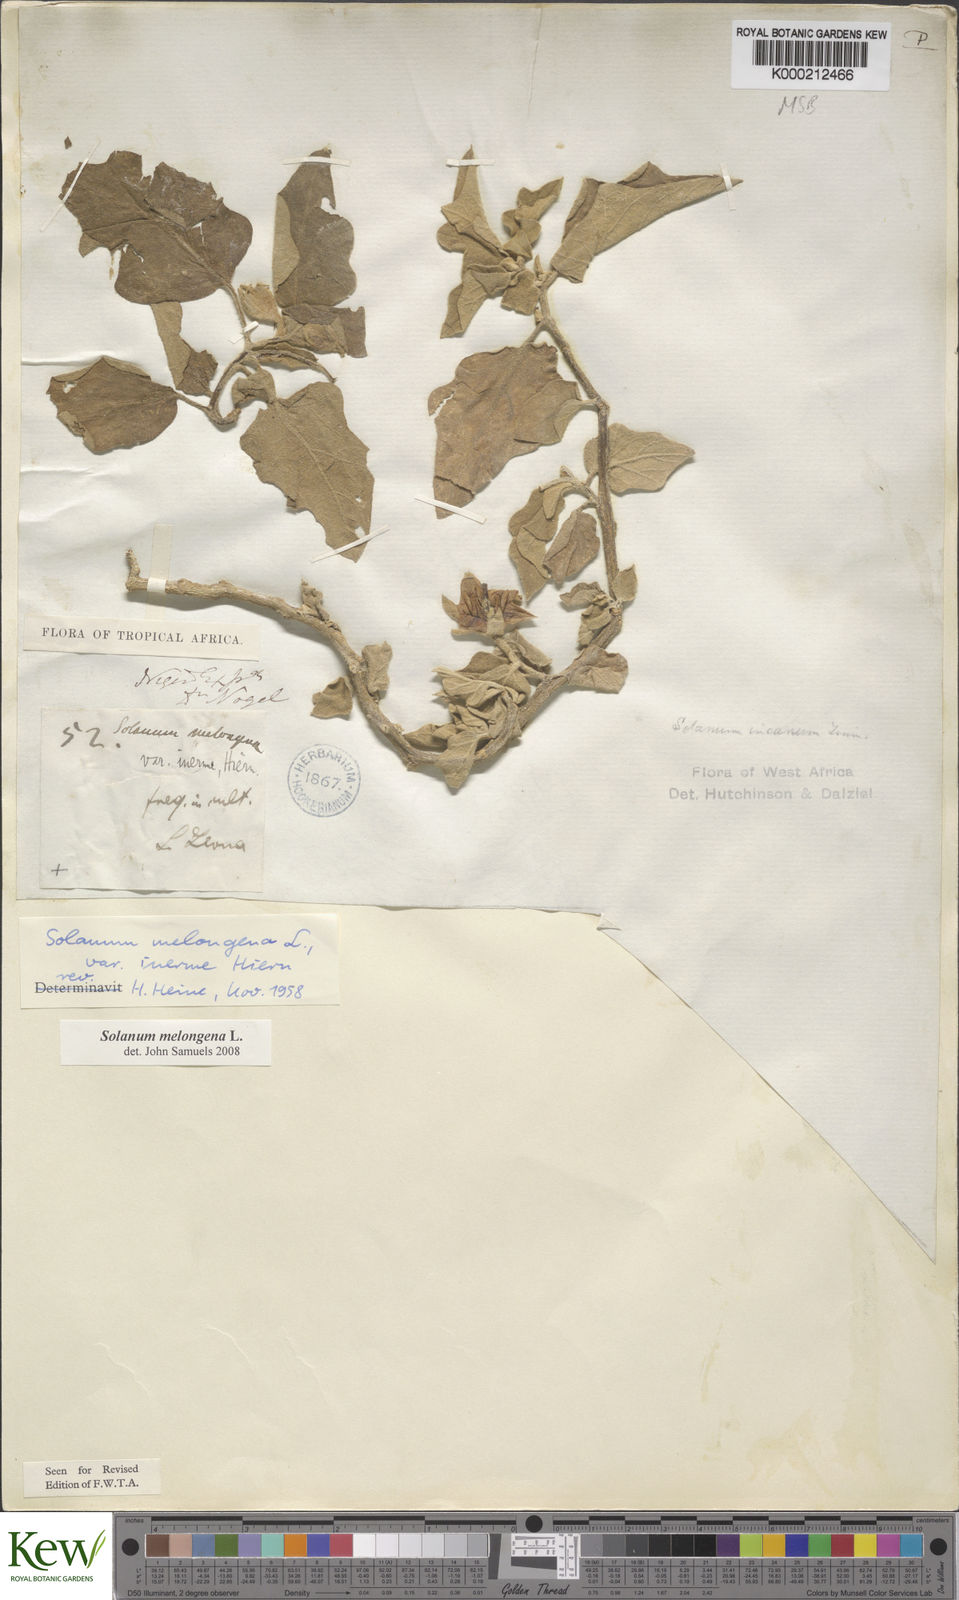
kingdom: Plantae
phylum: Tracheophyta
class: Magnoliopsida
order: Solanales
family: Solanaceae
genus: Solanum
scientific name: Solanum melongena
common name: Eggplant
